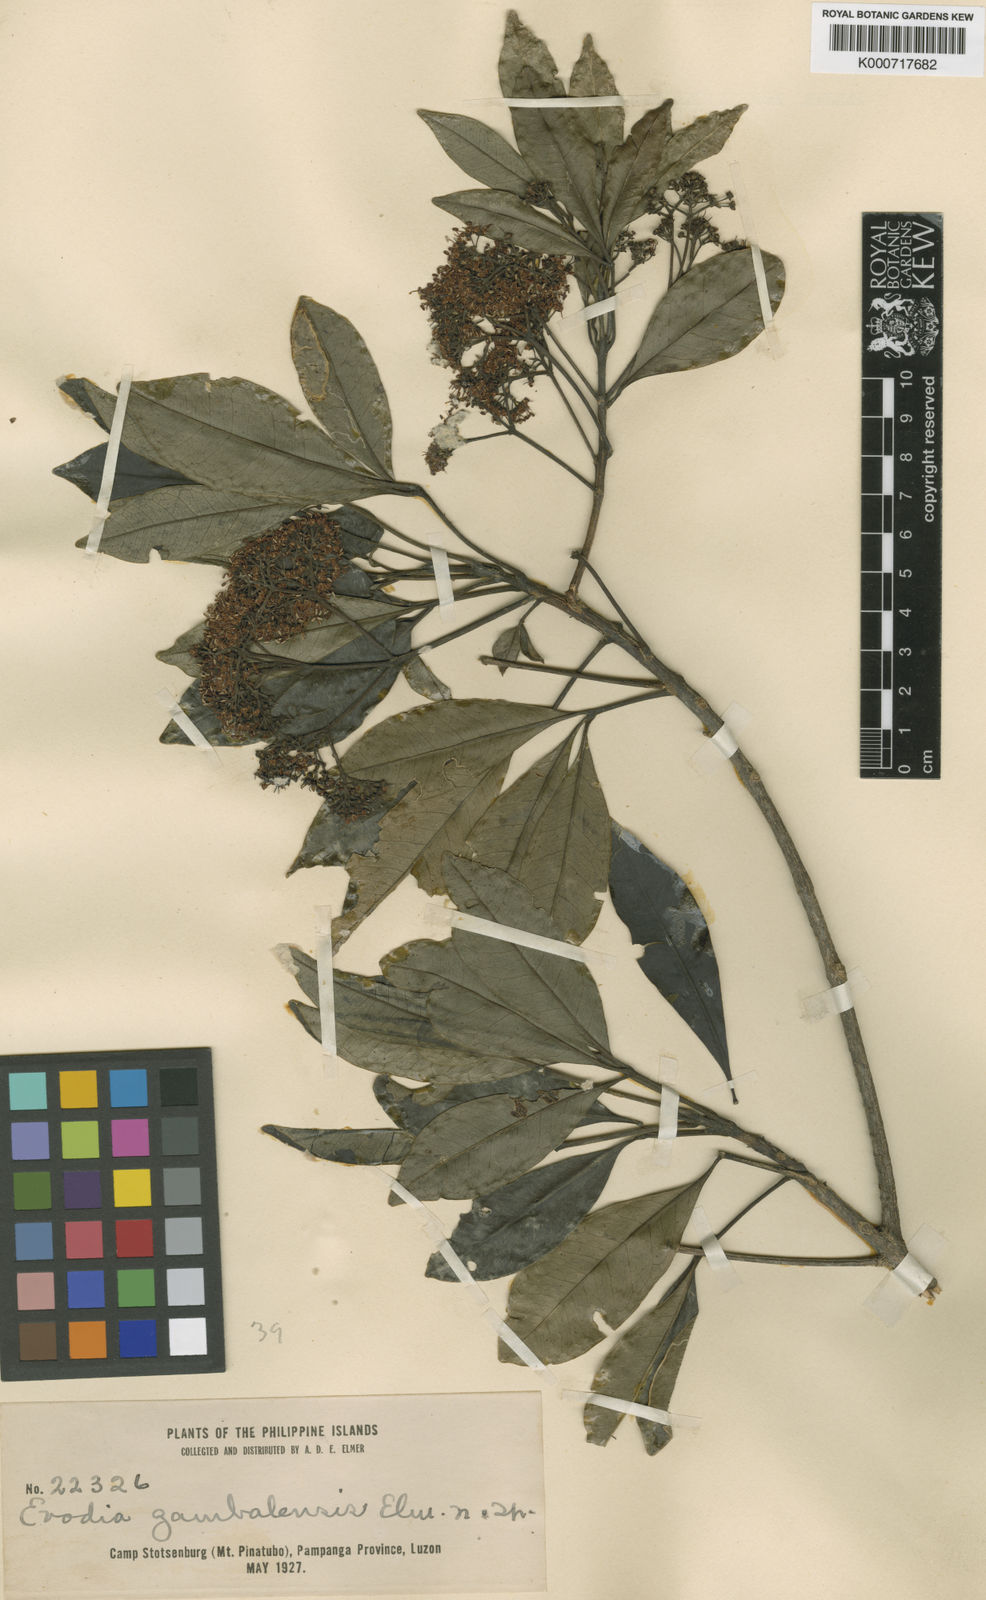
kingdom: Plantae
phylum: Tracheophyta
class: Magnoliopsida
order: Sapindales
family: Rutaceae
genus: Melicope
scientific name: Melicope zambalensis
